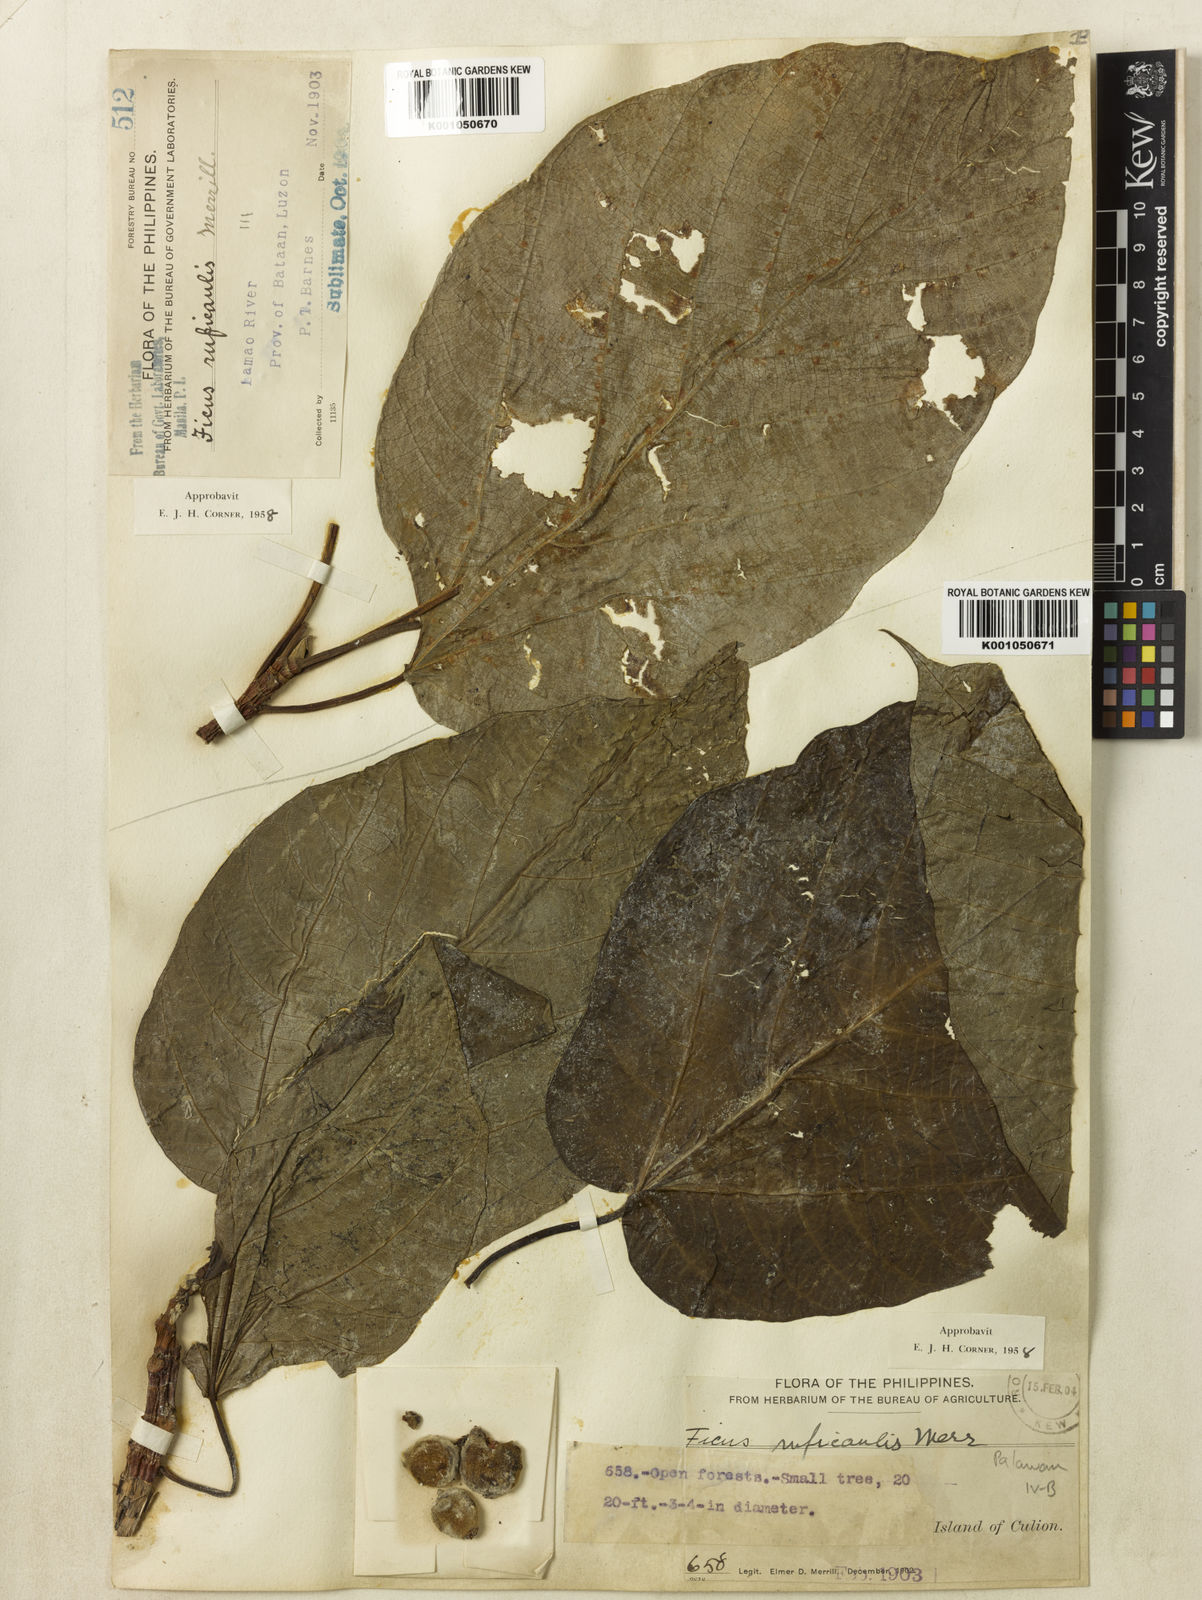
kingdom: Plantae
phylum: Tracheophyta
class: Magnoliopsida
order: Rosales
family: Moraceae
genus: Ficus
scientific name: Ficus ruficaulis
